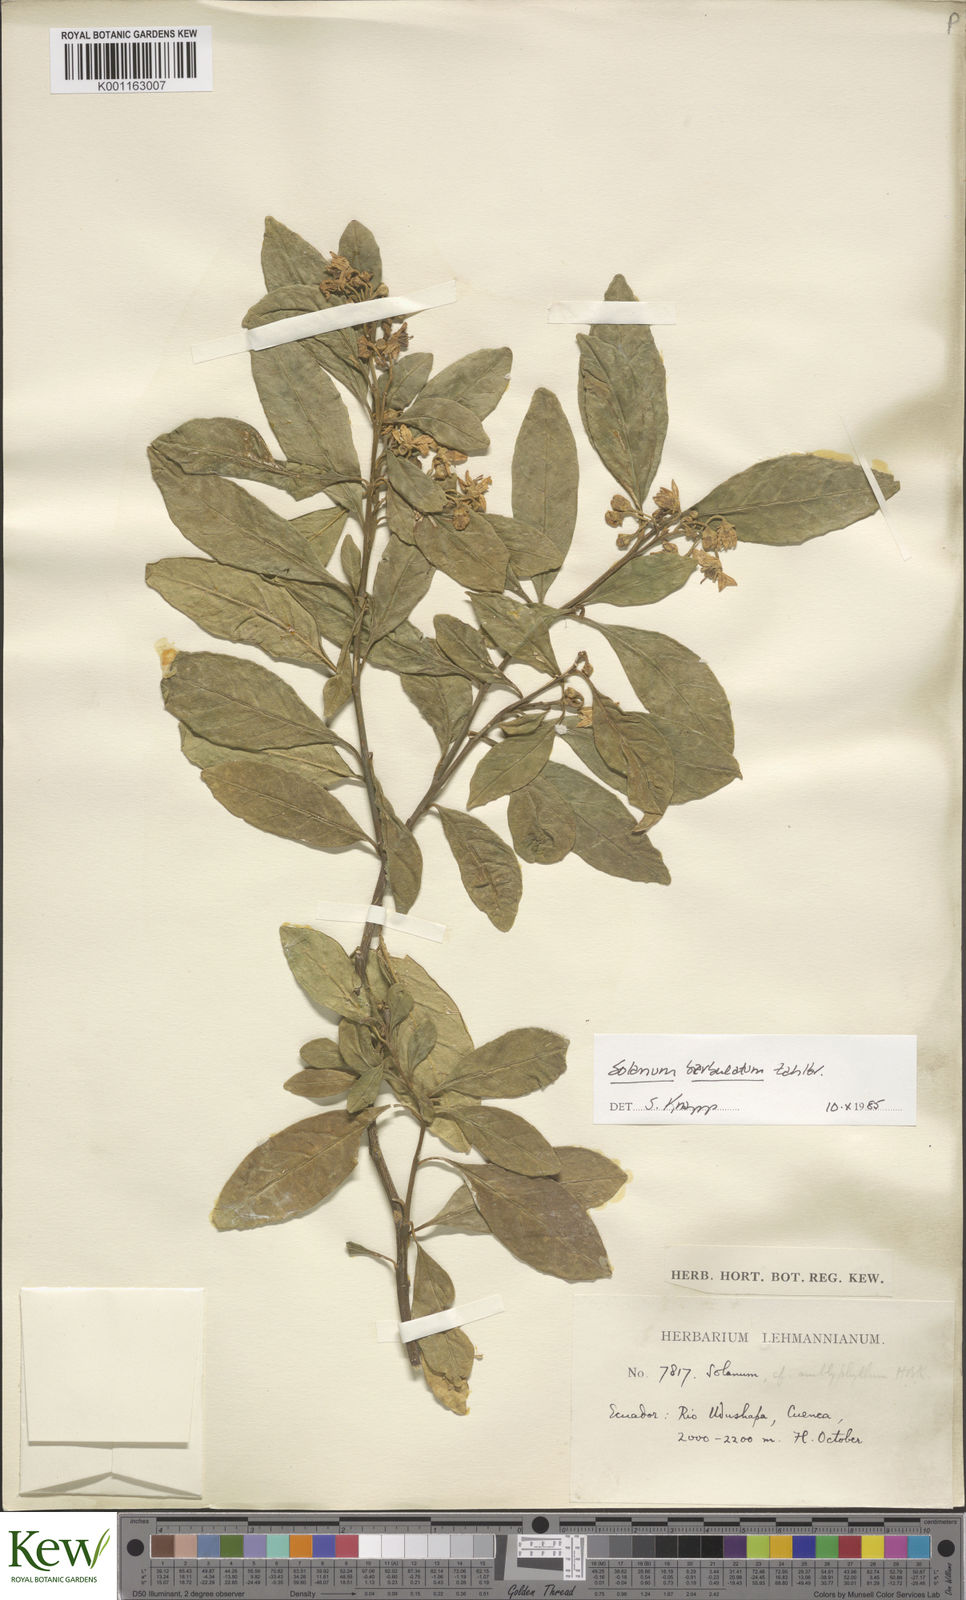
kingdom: Plantae
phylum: Tracheophyta
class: Magnoliopsida
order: Solanales
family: Solanaceae
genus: Solanum
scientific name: Solanum barbulatum
